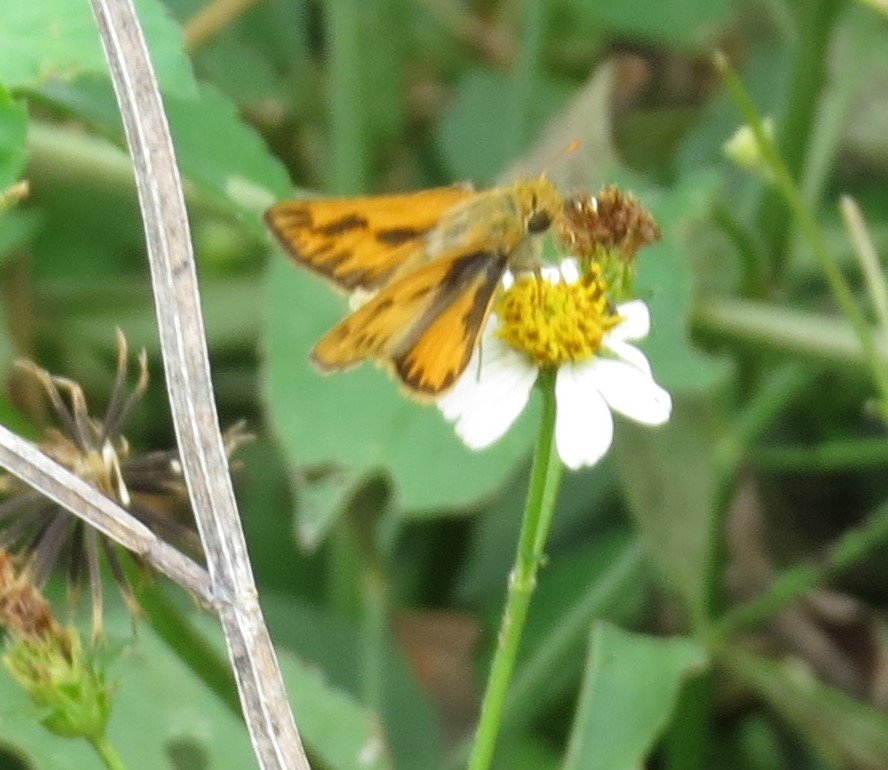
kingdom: Animalia
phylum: Arthropoda
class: Insecta
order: Lepidoptera
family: Hesperiidae
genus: Hylephila
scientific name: Hylephila phyleus
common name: Fiery Skipper
